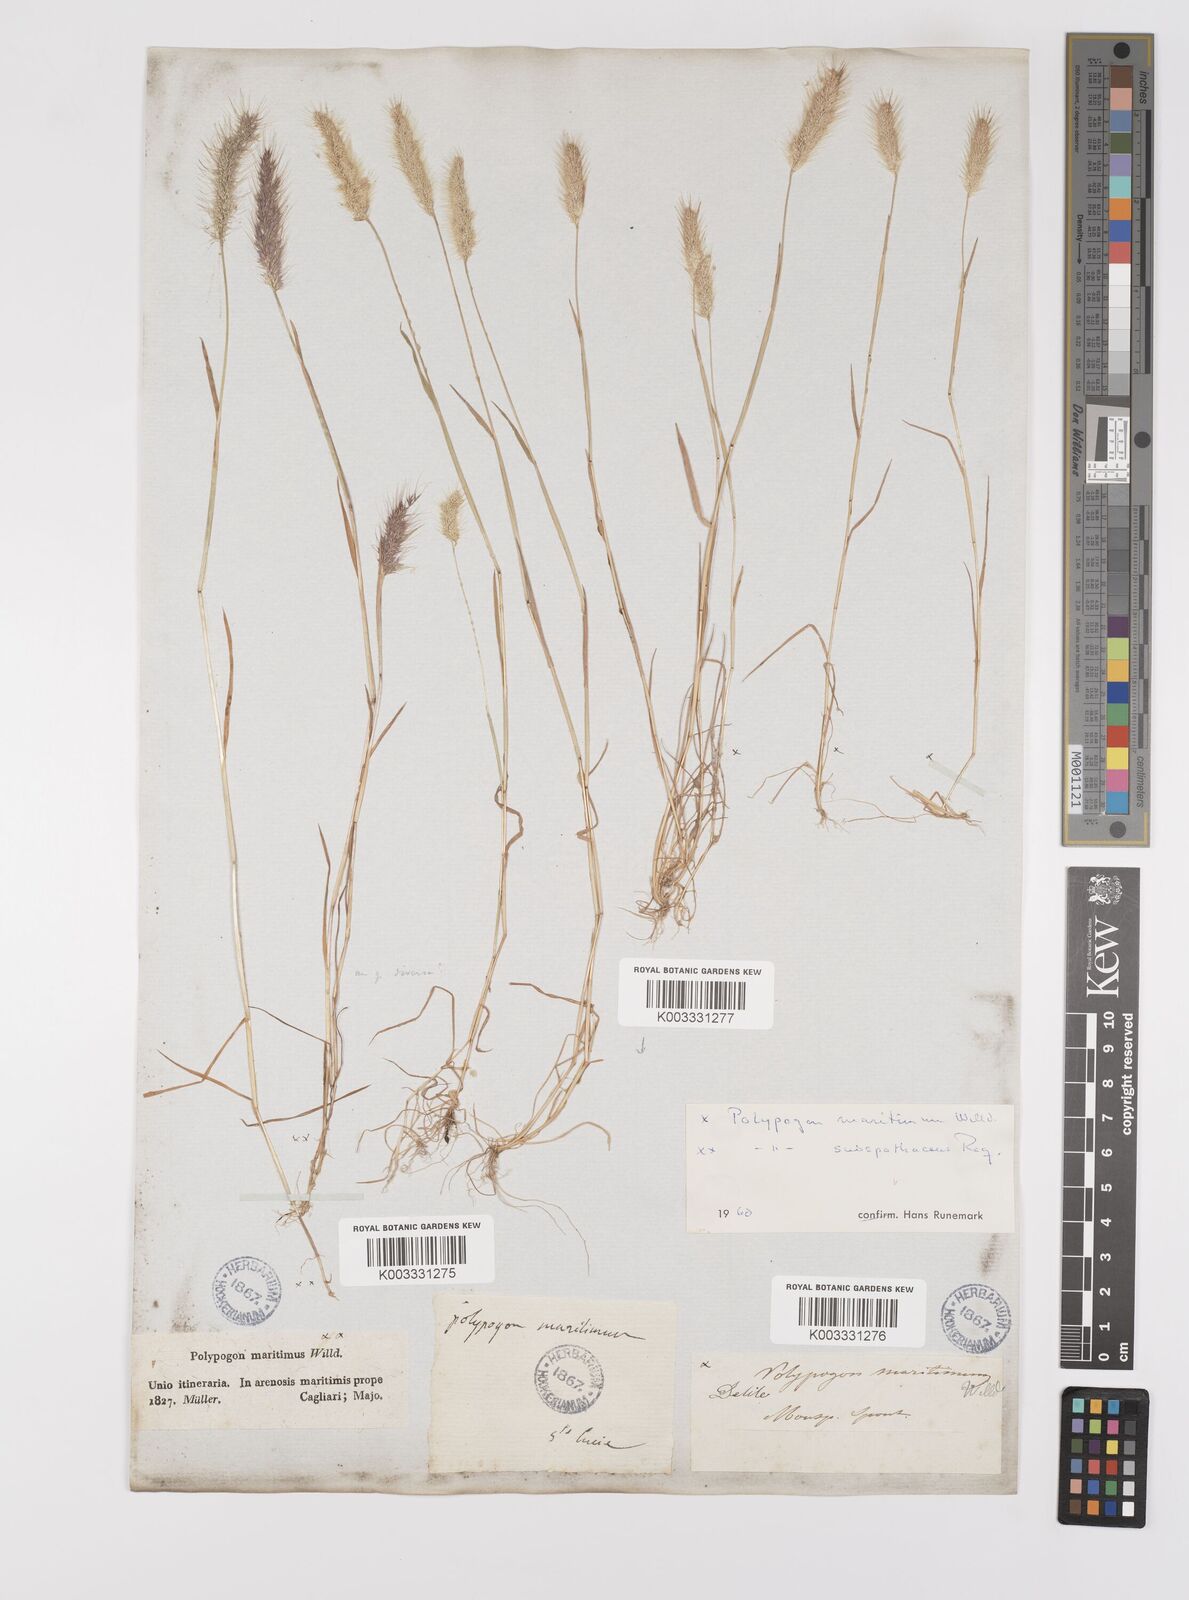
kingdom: Plantae
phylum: Tracheophyta
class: Liliopsida
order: Poales
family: Poaceae
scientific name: Poaceae
